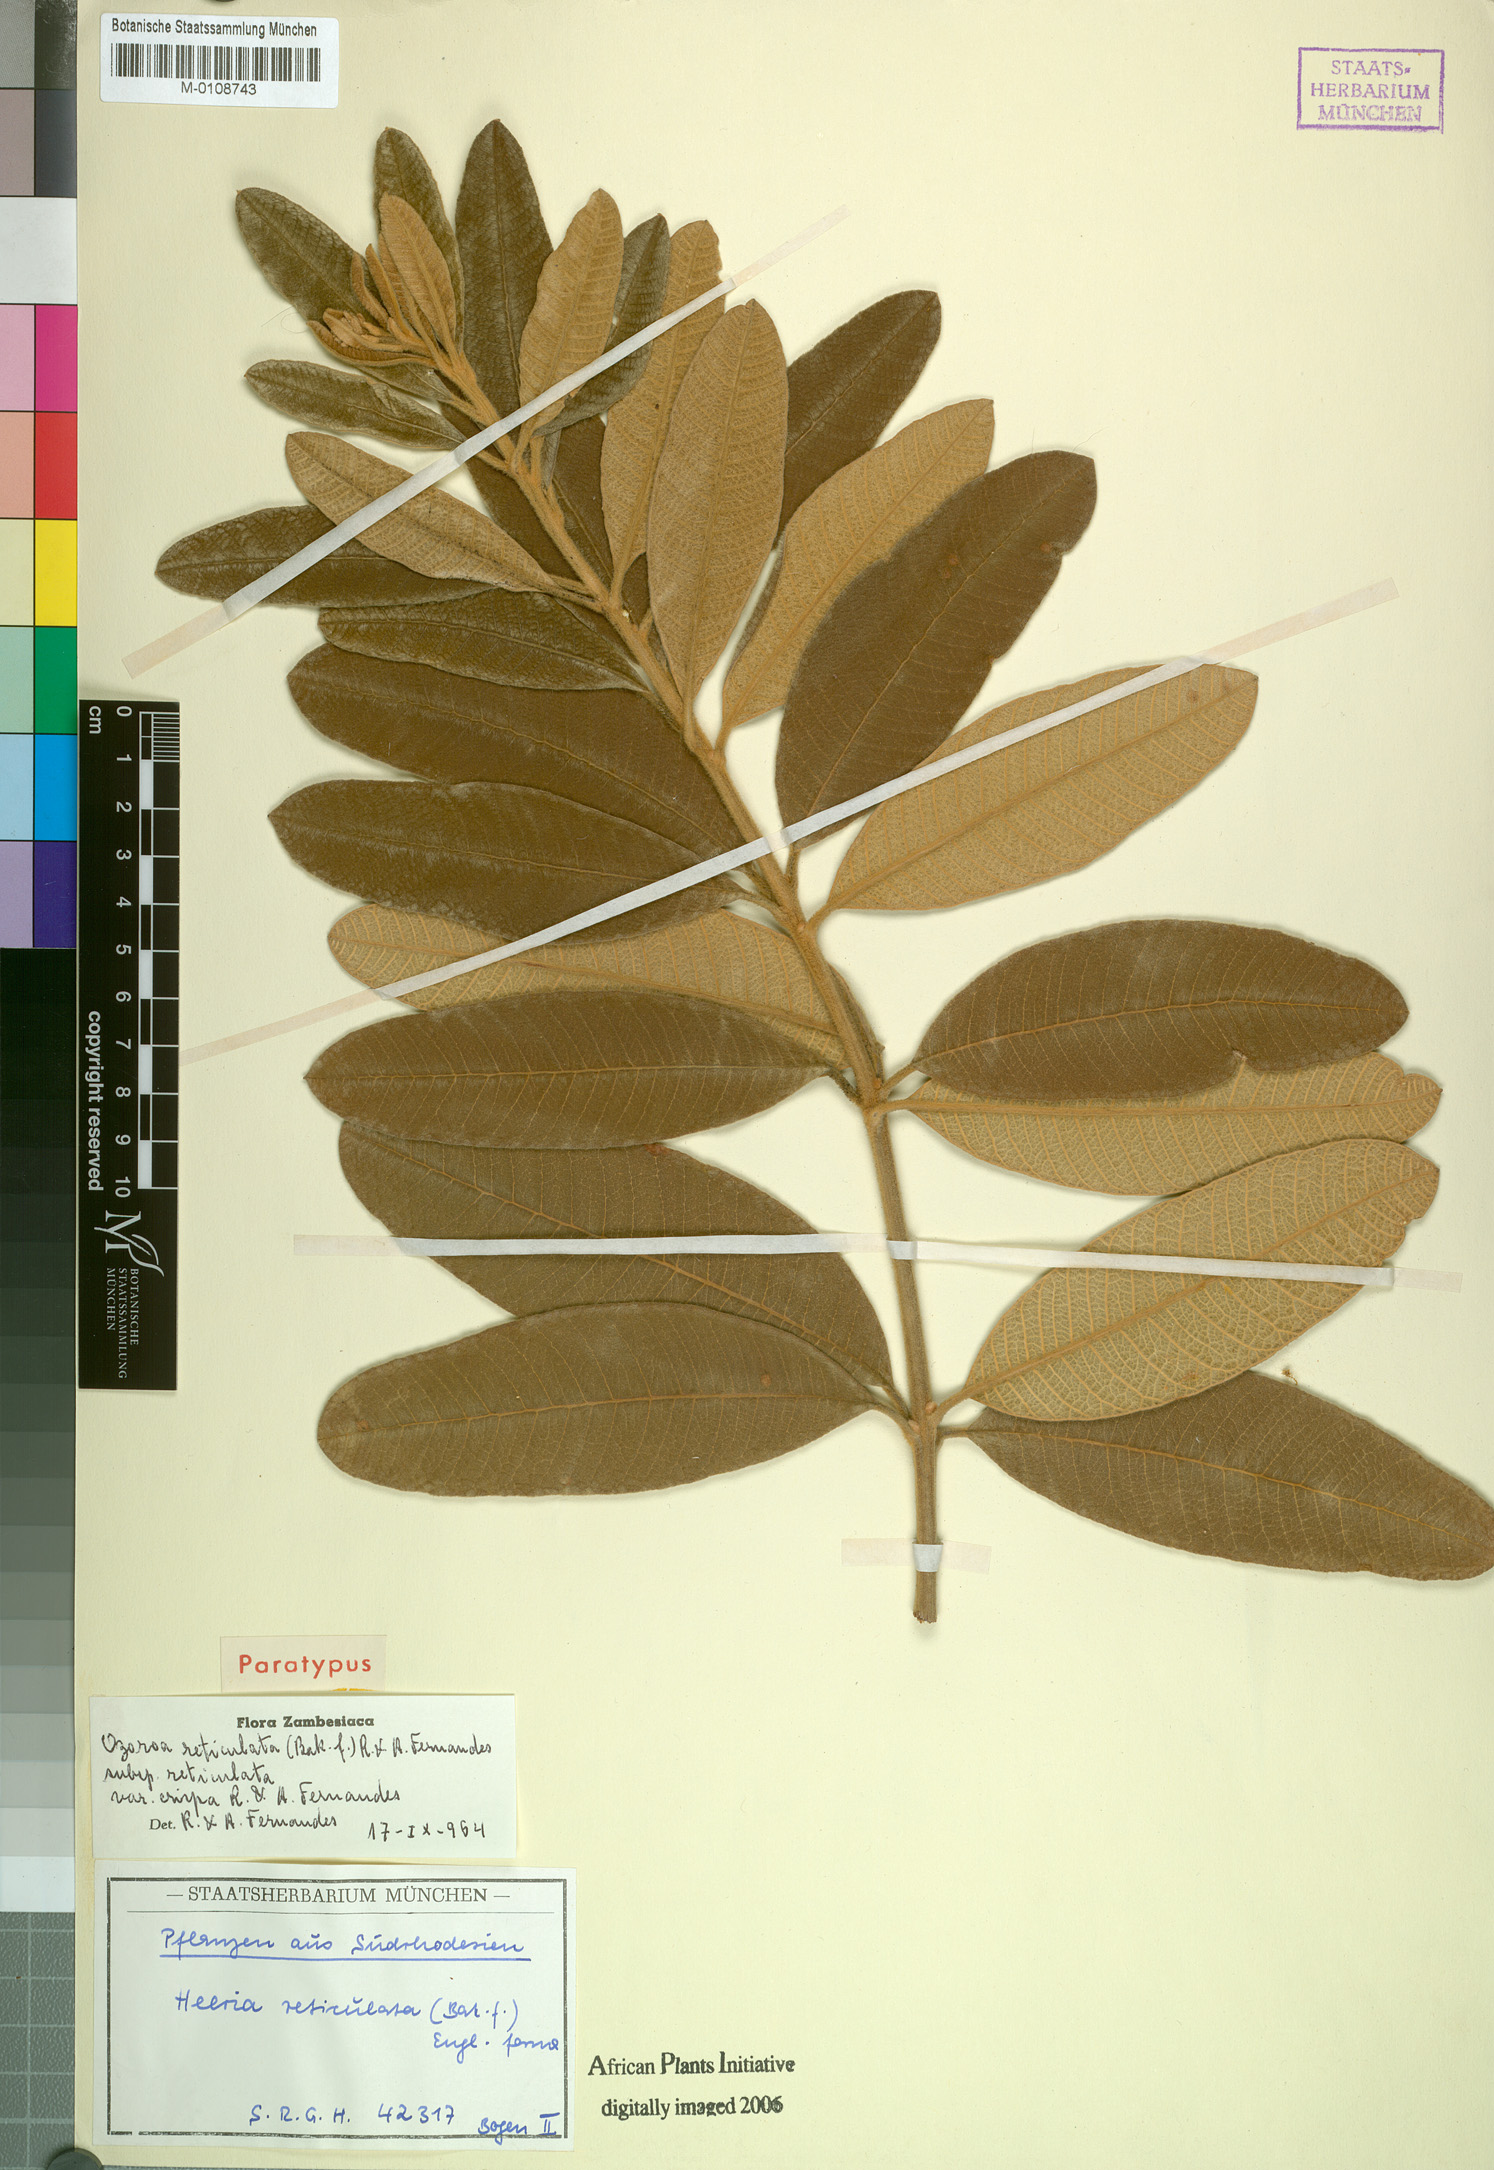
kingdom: Plantae
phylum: Tracheophyta
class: Magnoliopsida
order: Sapindales
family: Anacardiaceae
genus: Ozoroa
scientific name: Ozoroa insignis
